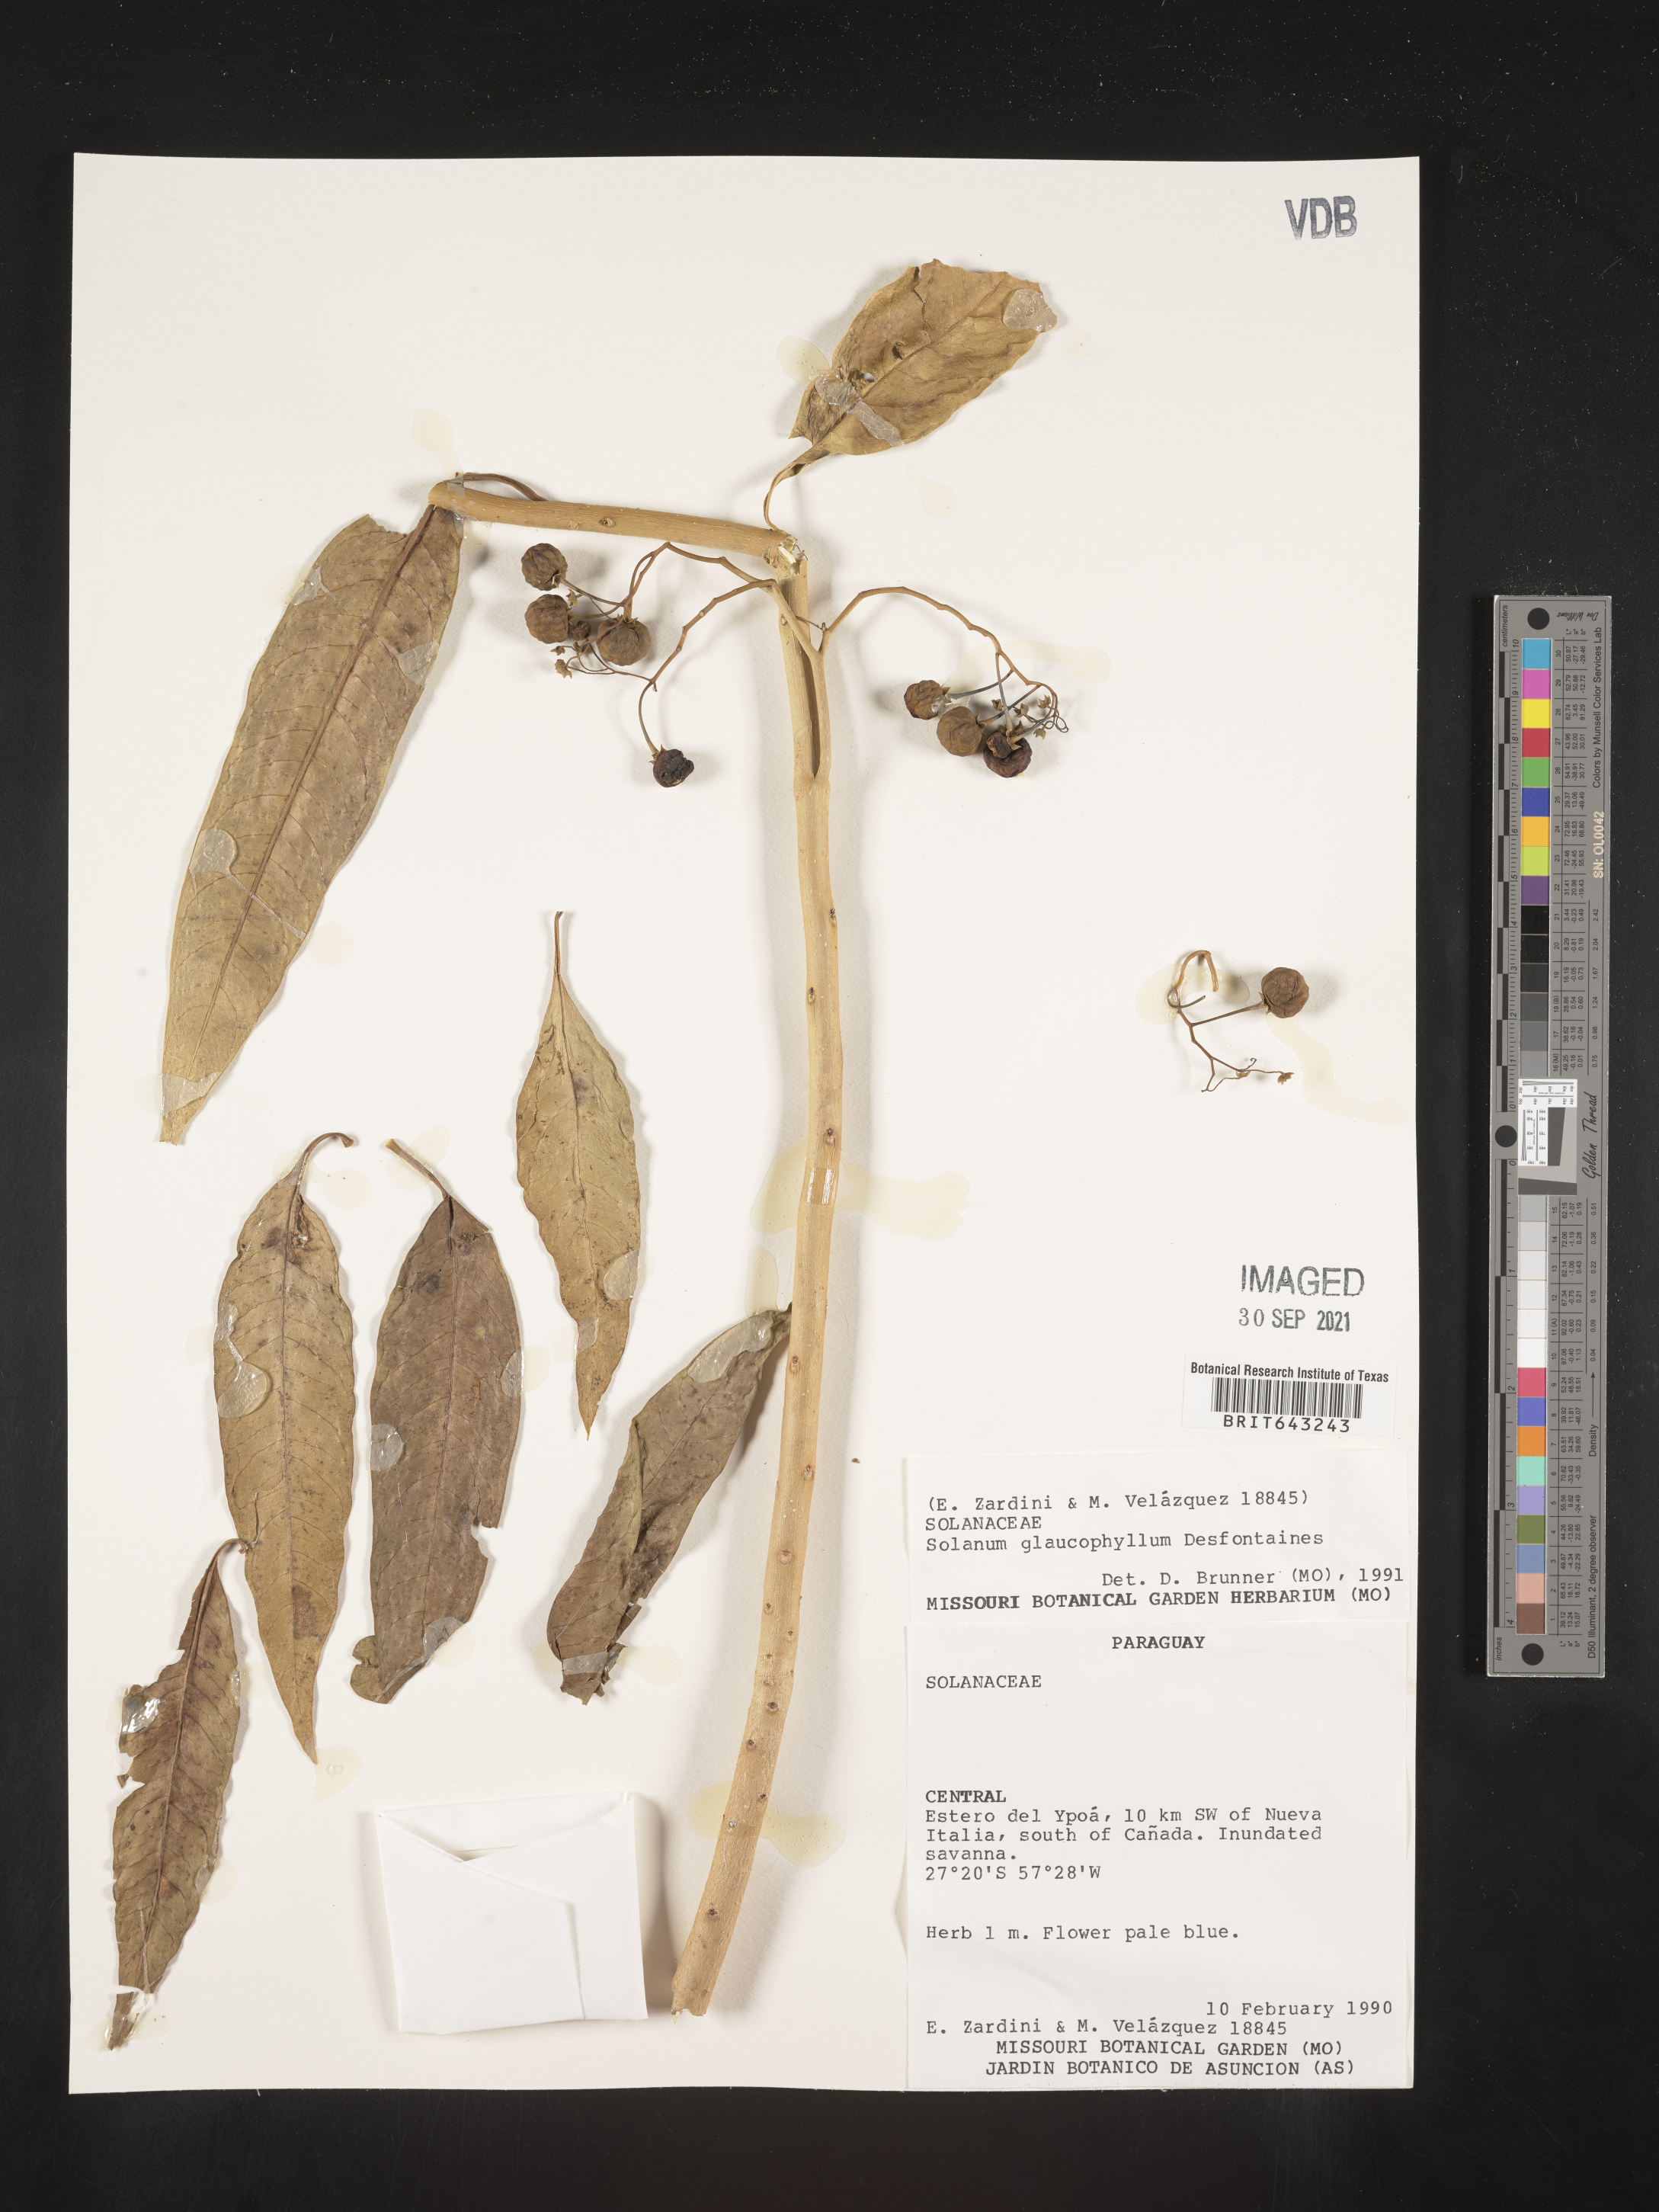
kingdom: Plantae
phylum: Tracheophyta
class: Magnoliopsida
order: Solanales
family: Solanaceae
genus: Solanum
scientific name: Solanum
